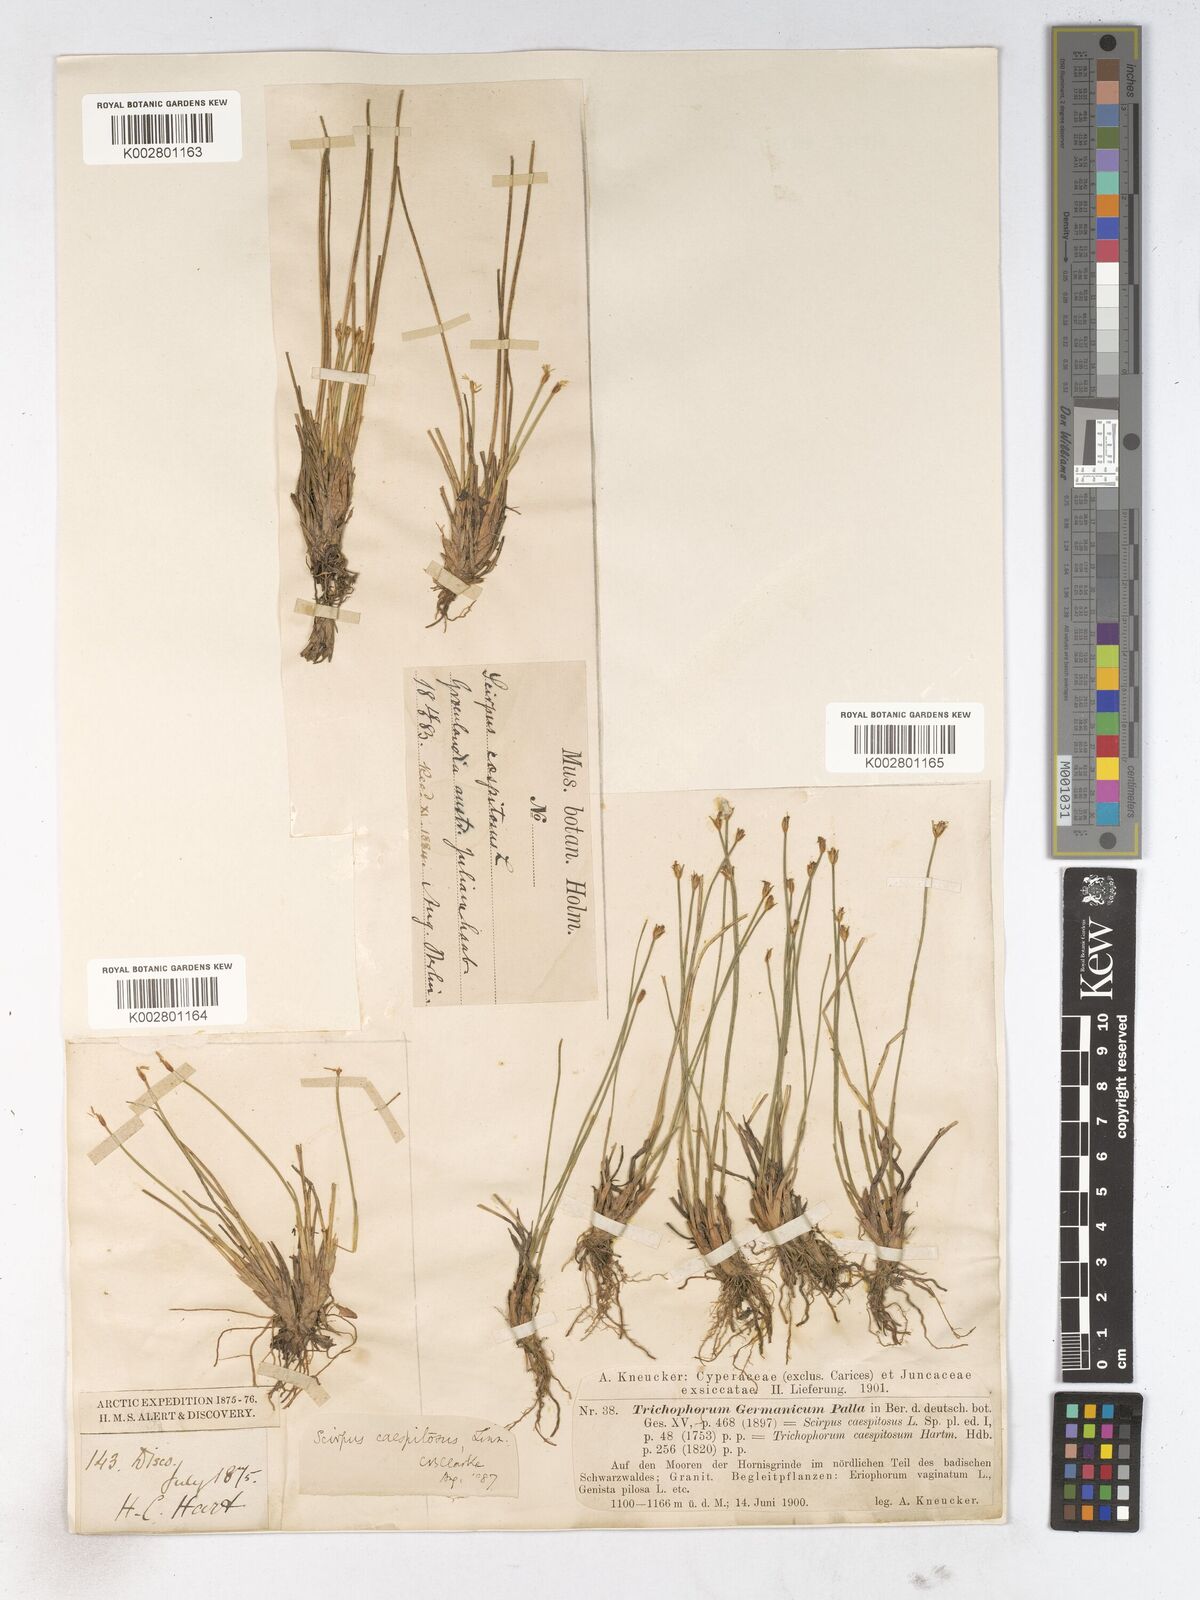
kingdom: Plantae
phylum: Tracheophyta
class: Liliopsida
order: Poales
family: Cyperaceae
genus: Trichophorum
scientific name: Trichophorum cespitosum
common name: Cespitose bulrush
